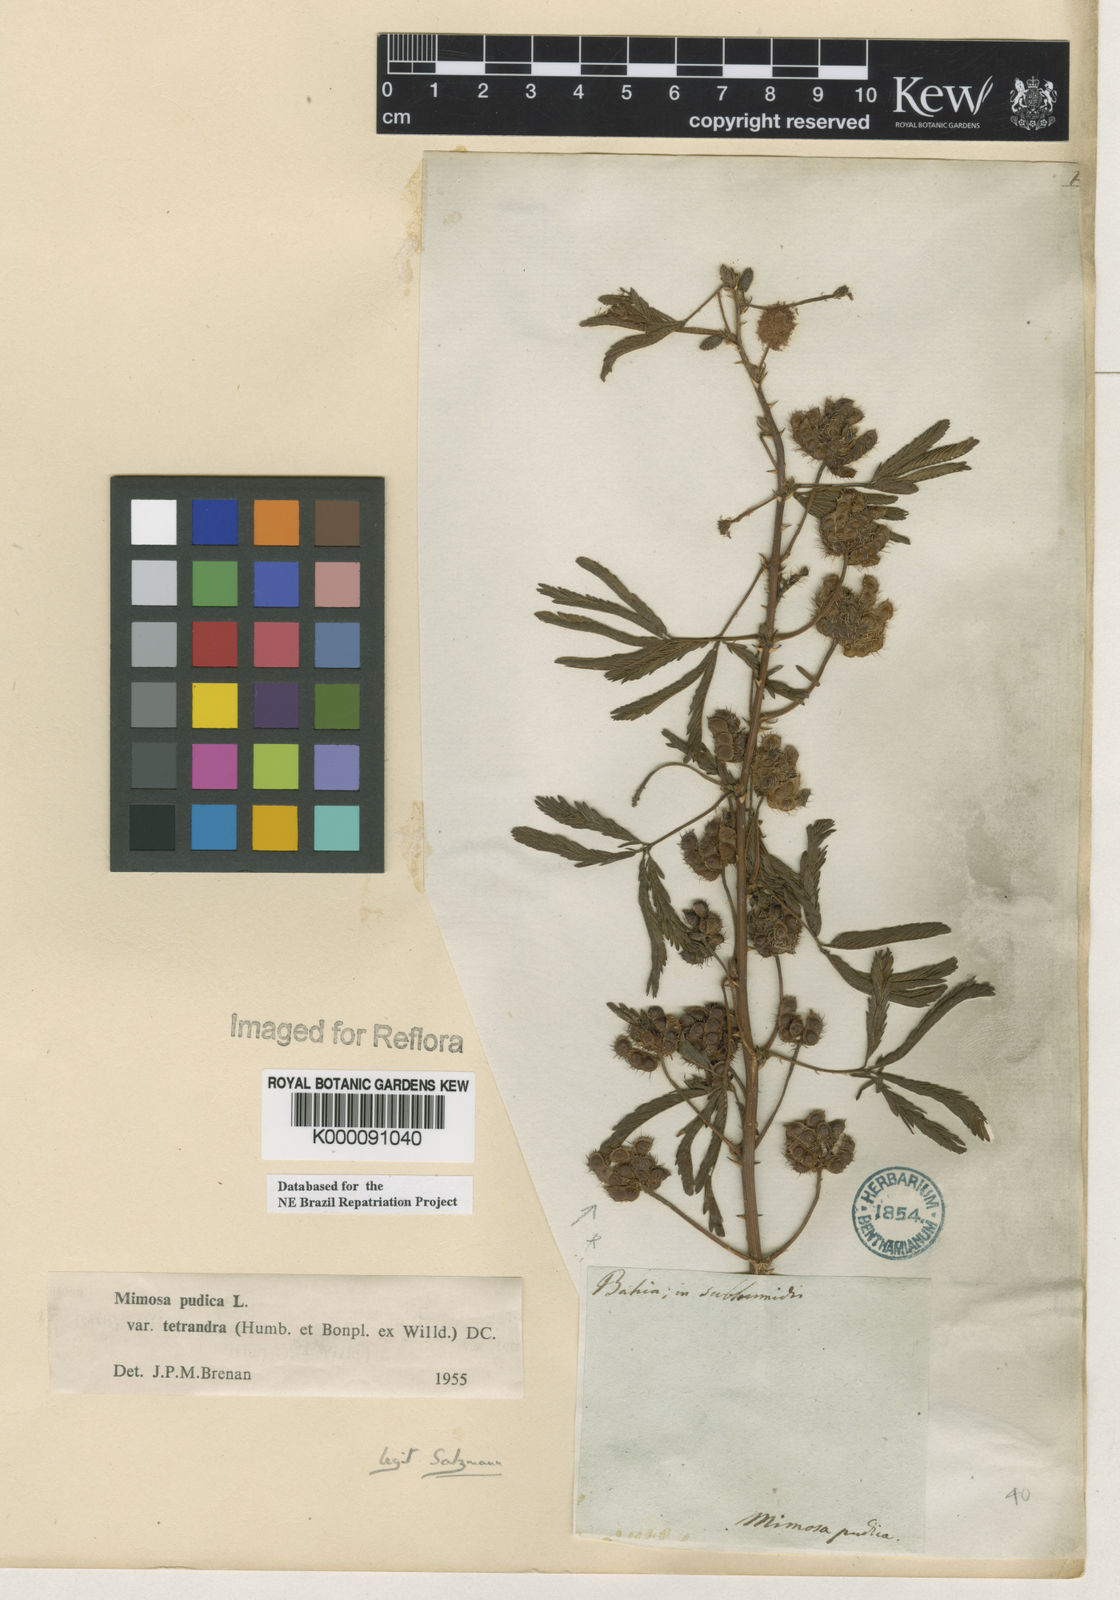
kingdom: Plantae
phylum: Tracheophyta
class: Magnoliopsida
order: Fabales
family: Fabaceae
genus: Mimosa
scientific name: Mimosa pudica
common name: Sensitive plant
